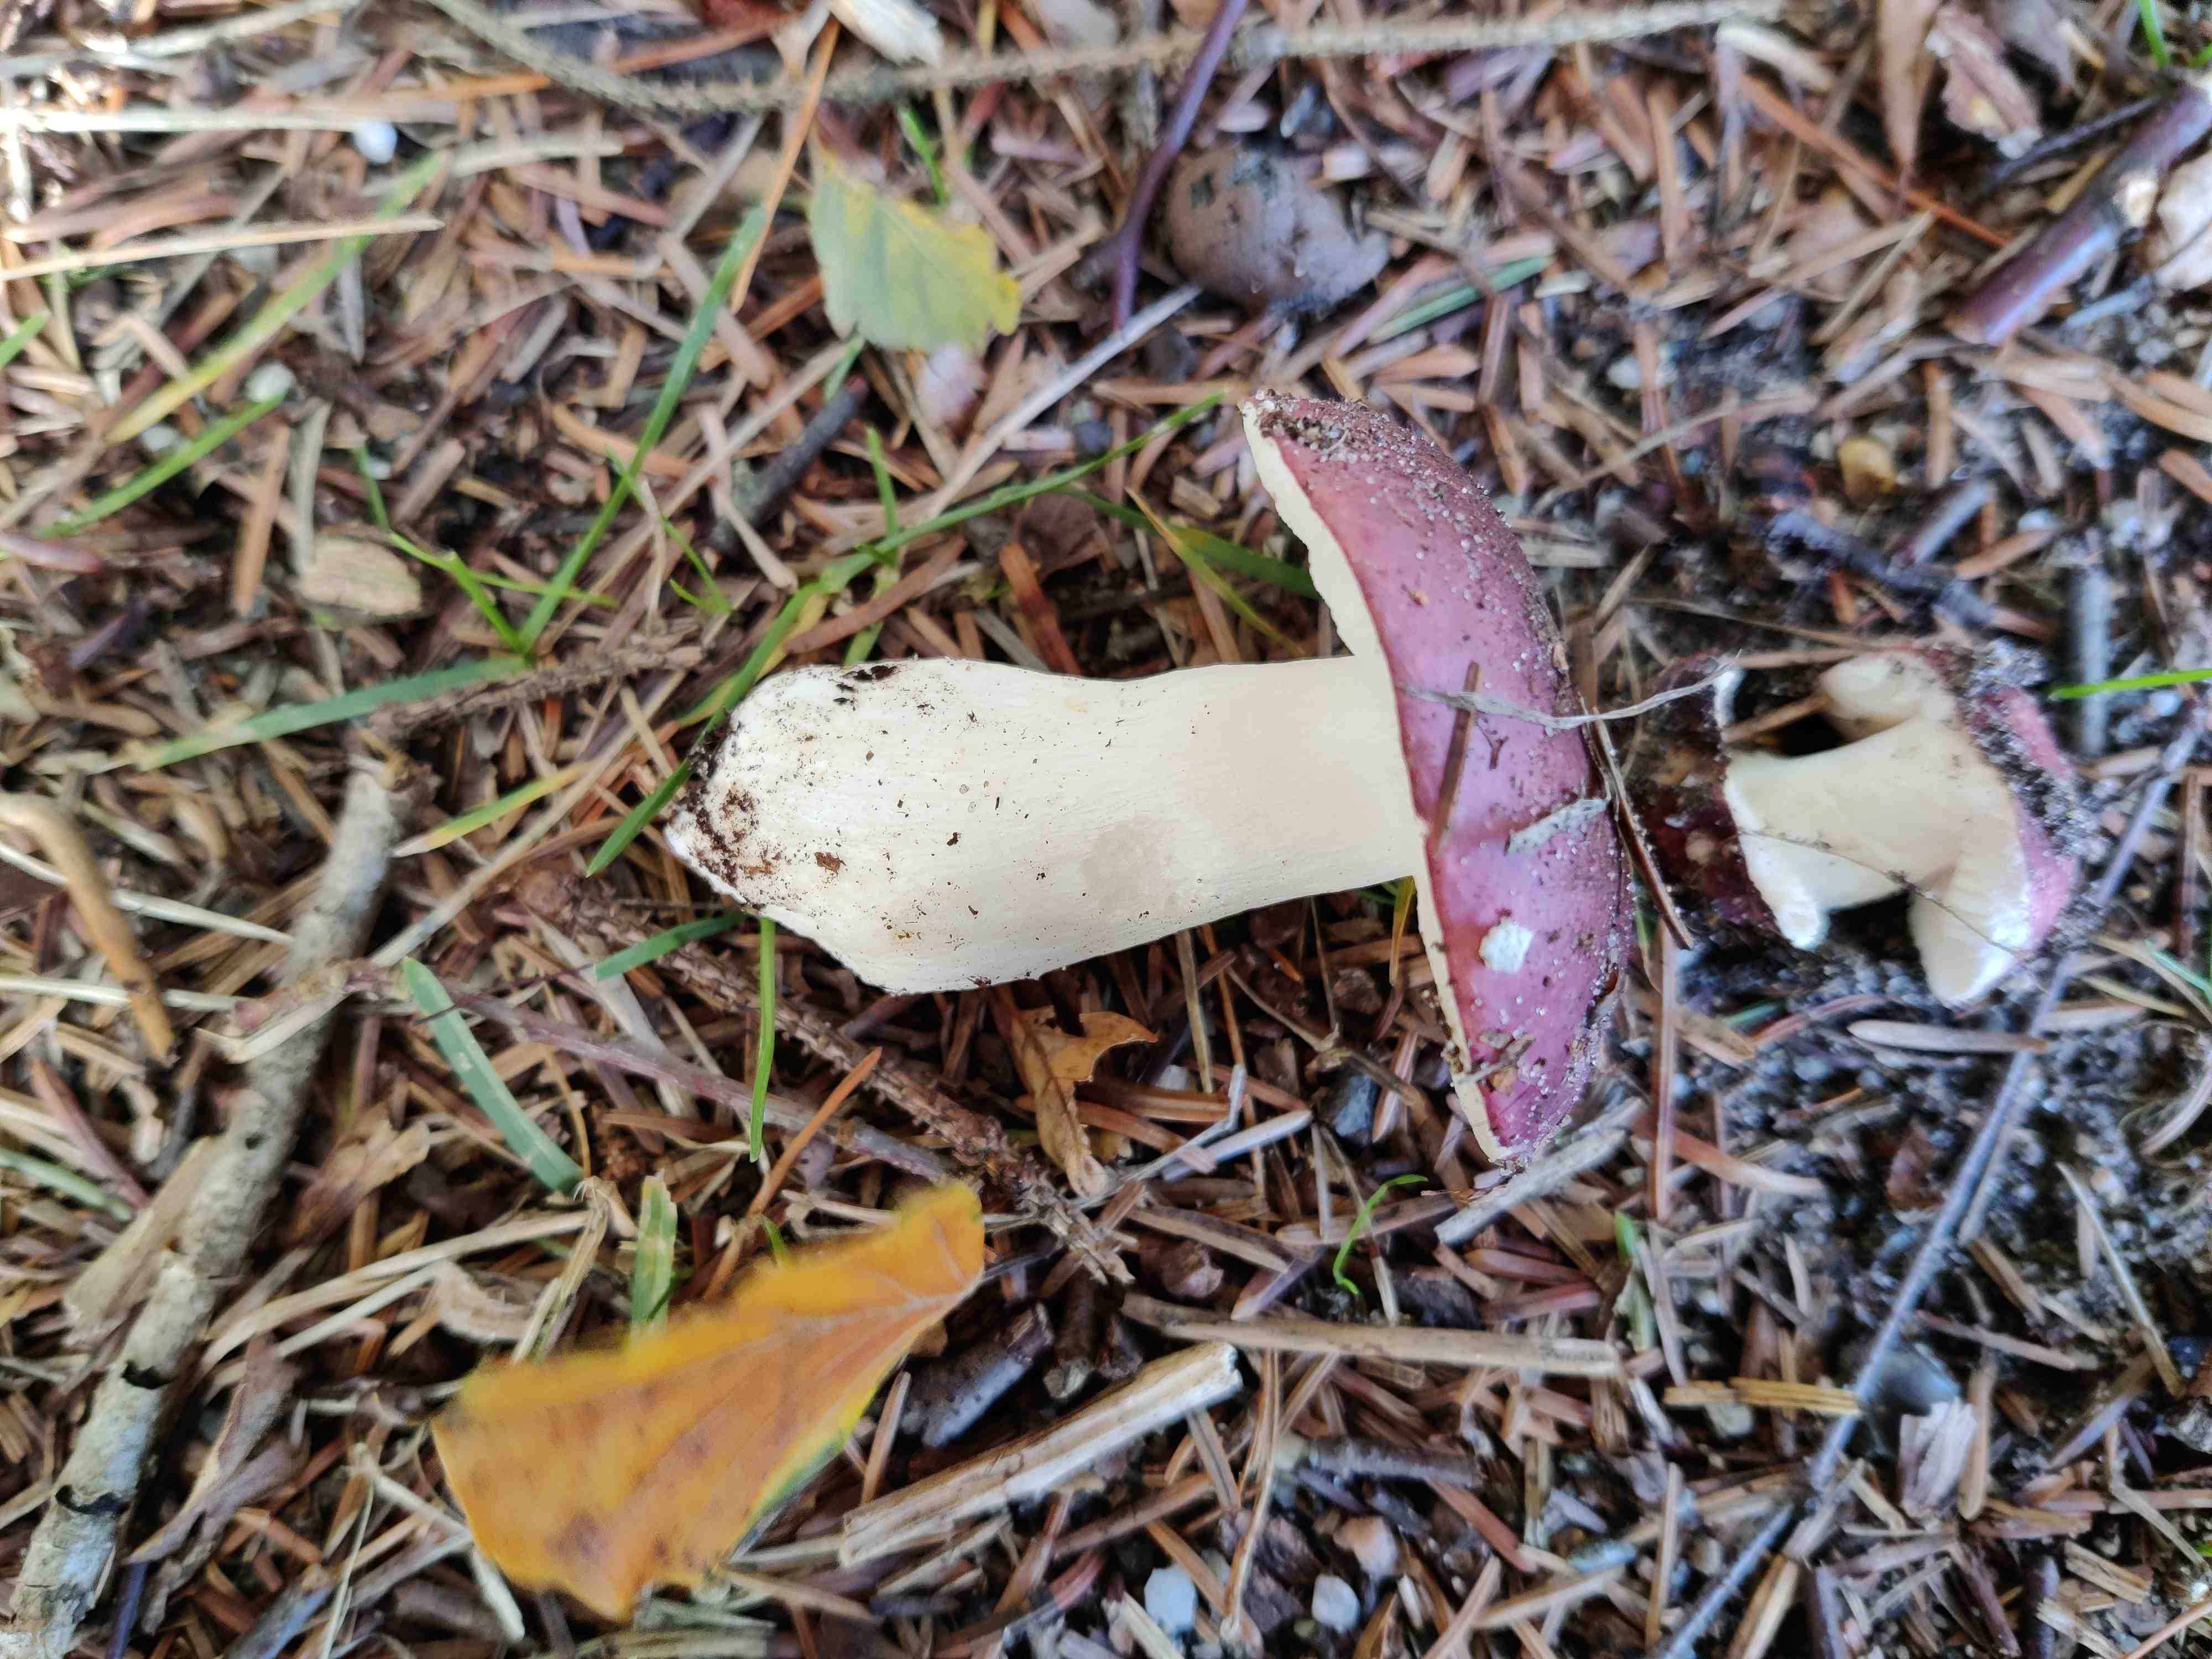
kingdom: Fungi
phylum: Basidiomycota
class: Agaricomycetes
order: Russulales
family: Russulaceae
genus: Russula
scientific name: Russula
